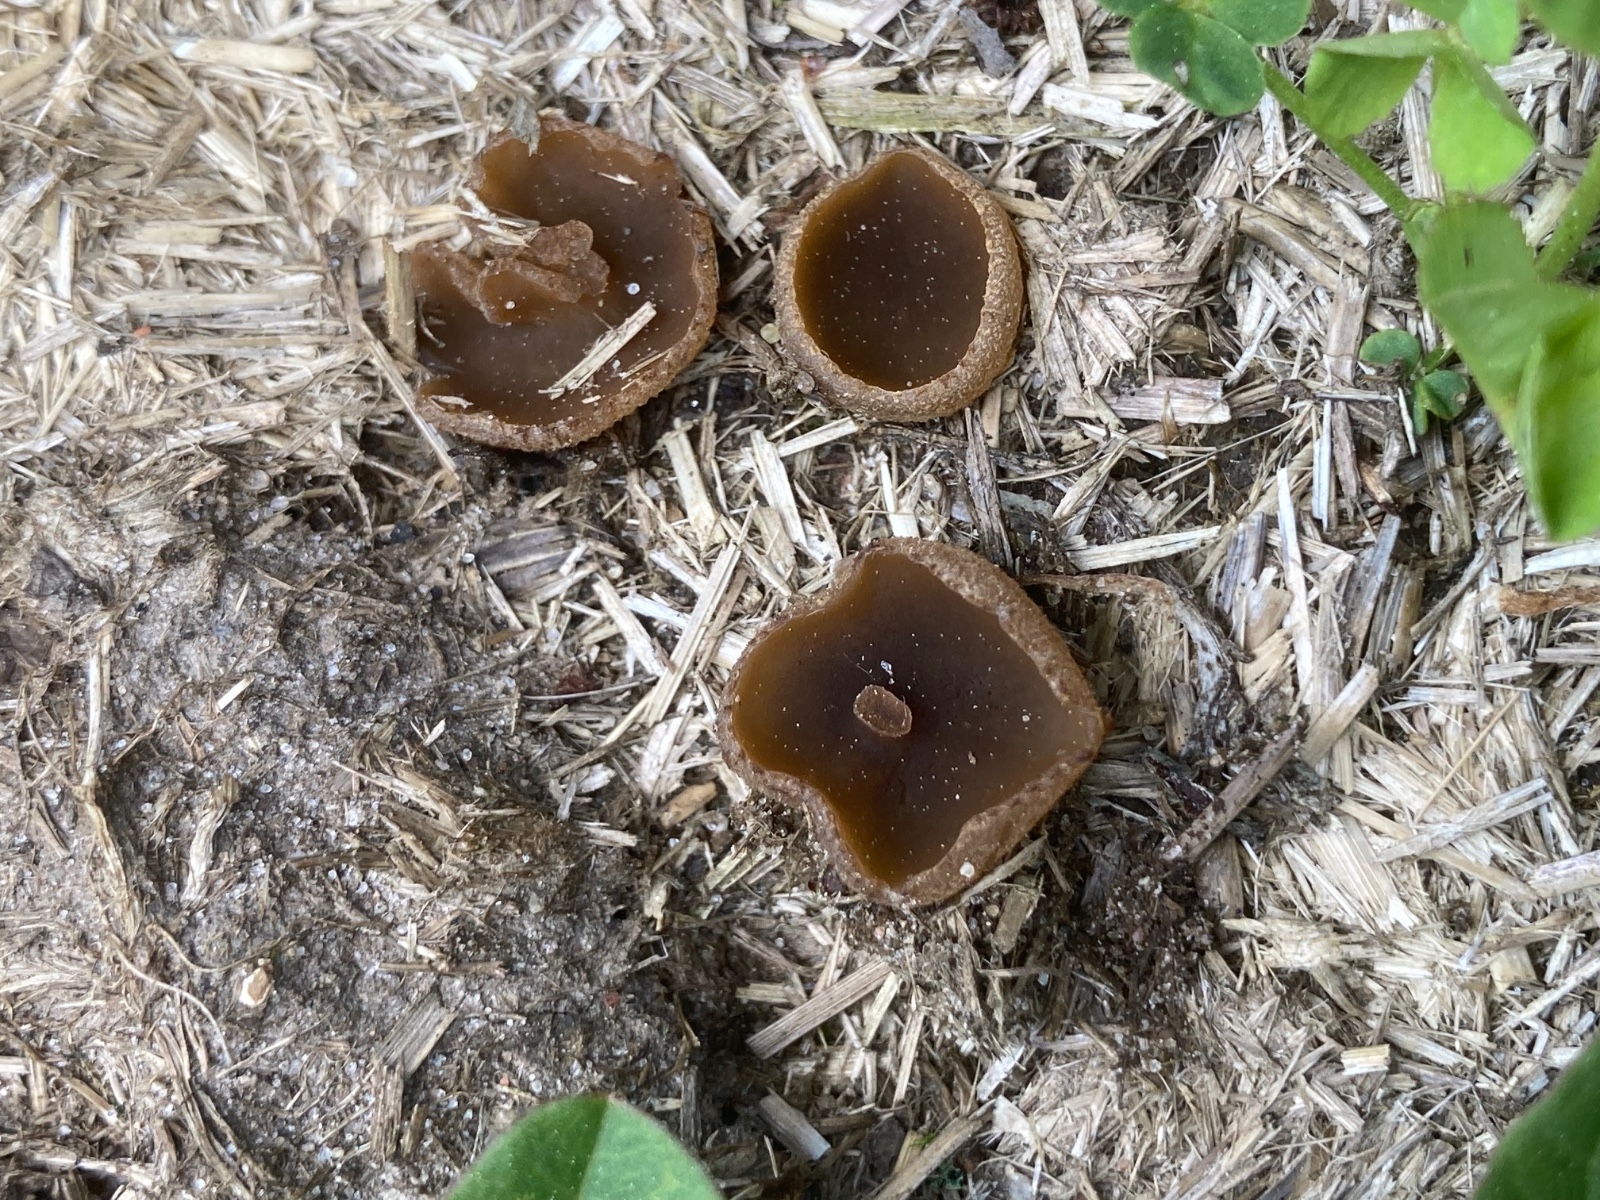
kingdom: Fungi
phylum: Ascomycota
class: Pezizomycetes
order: Pezizales
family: Pezizaceae
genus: Peziza
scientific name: Peziza fimeti
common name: møg-bægersvamp
